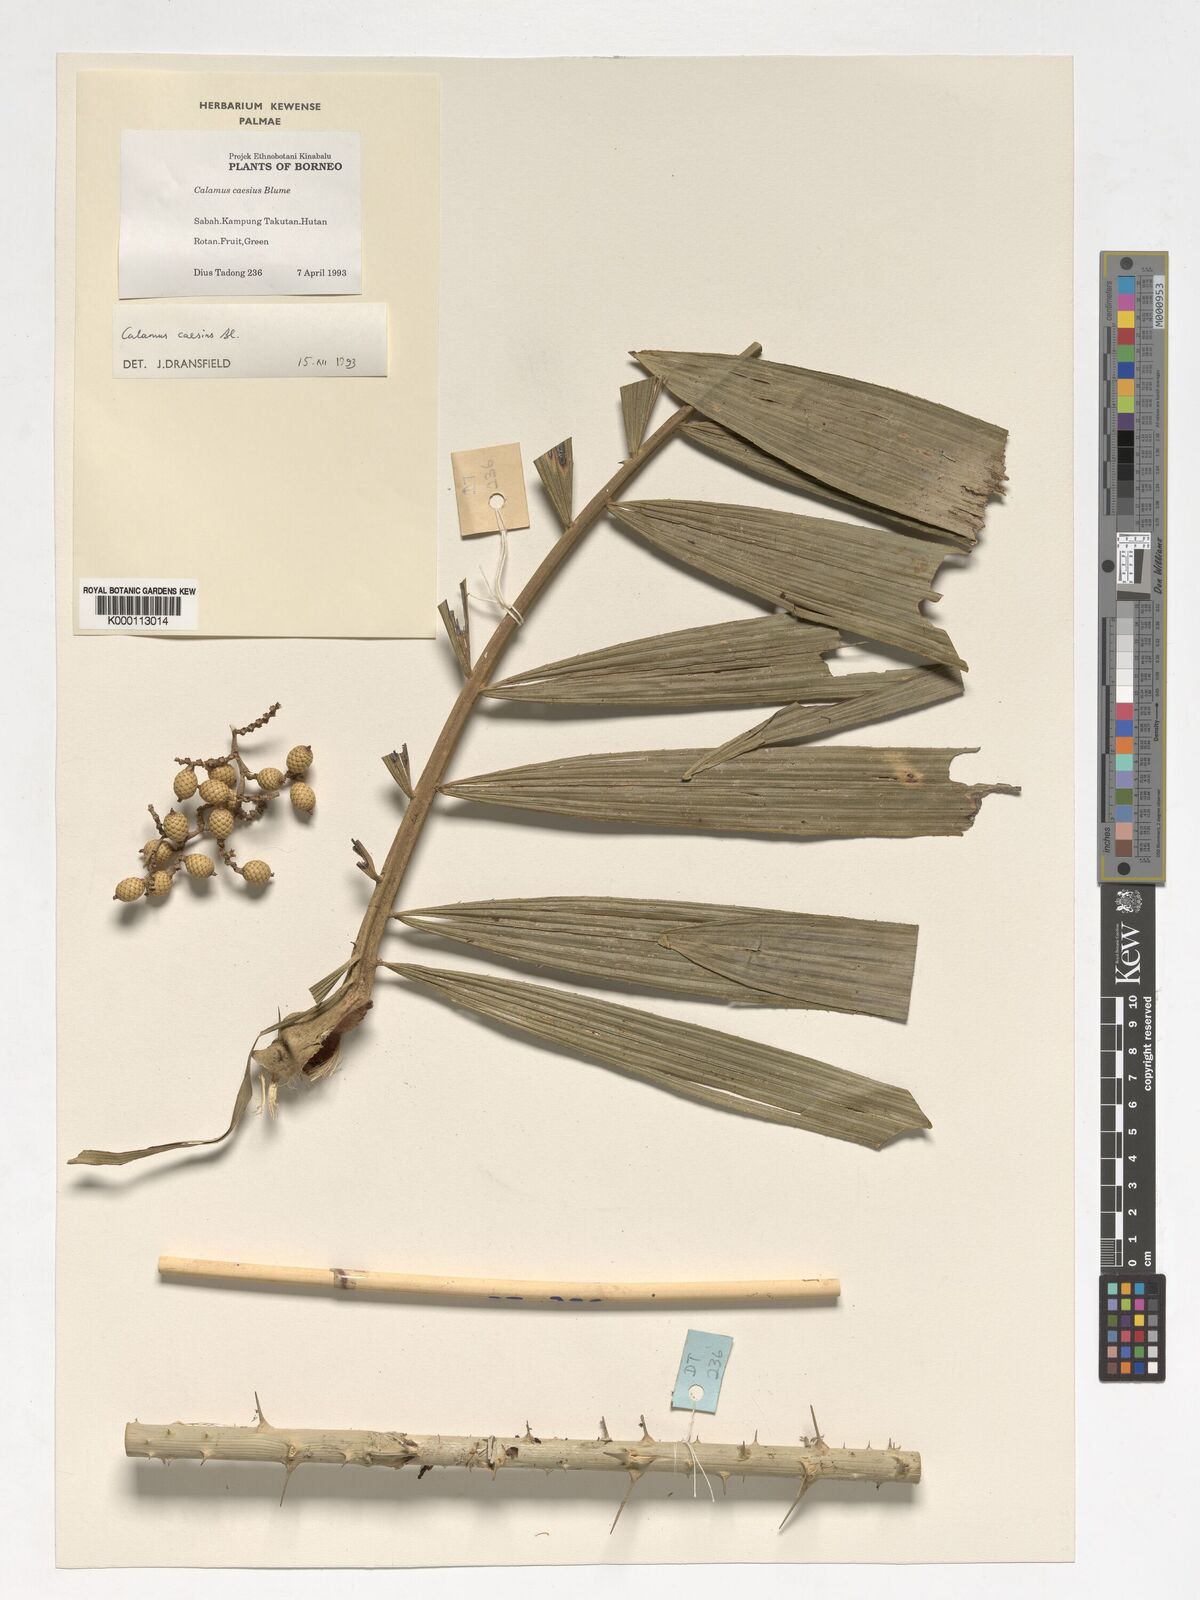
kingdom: Plantae
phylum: Tracheophyta
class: Liliopsida
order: Arecales
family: Arecaceae
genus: Calamus
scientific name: Calamus caesius
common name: Rattan palm
